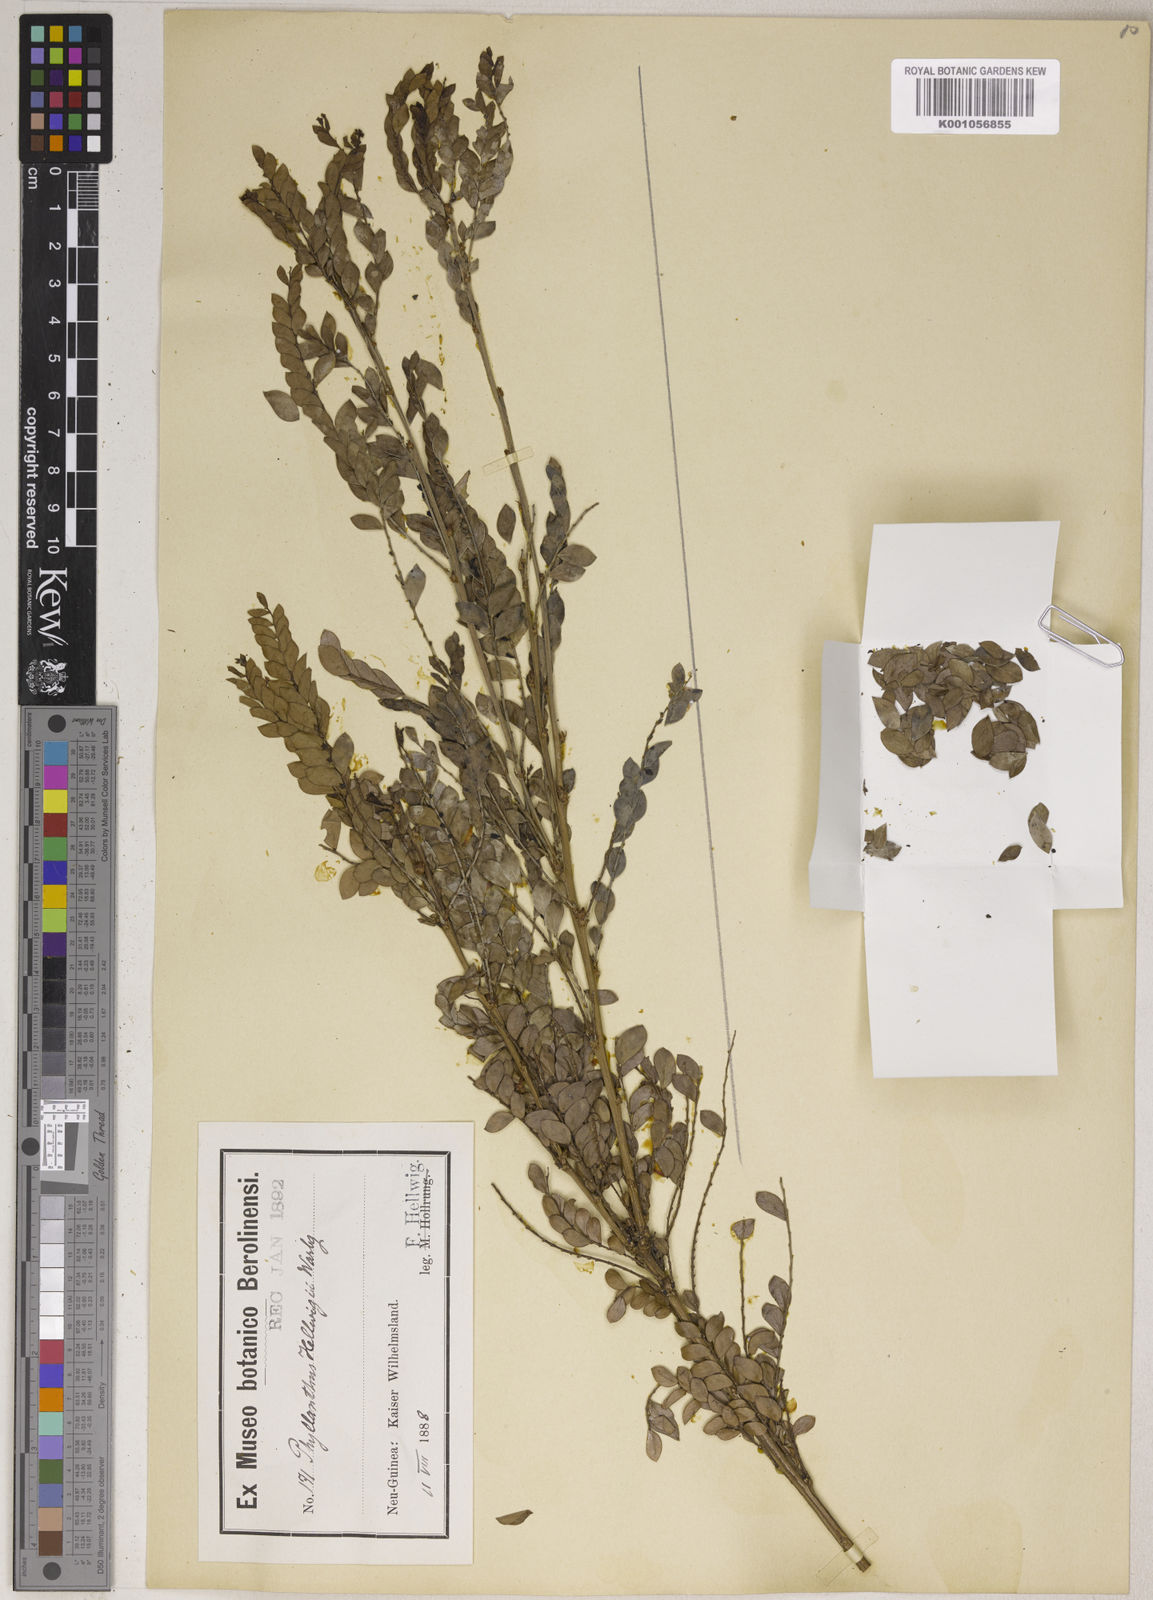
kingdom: Plantae
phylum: Tracheophyta
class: Magnoliopsida
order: Malpighiales
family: Phyllanthaceae
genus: Phyllanthus
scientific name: Phyllanthus
